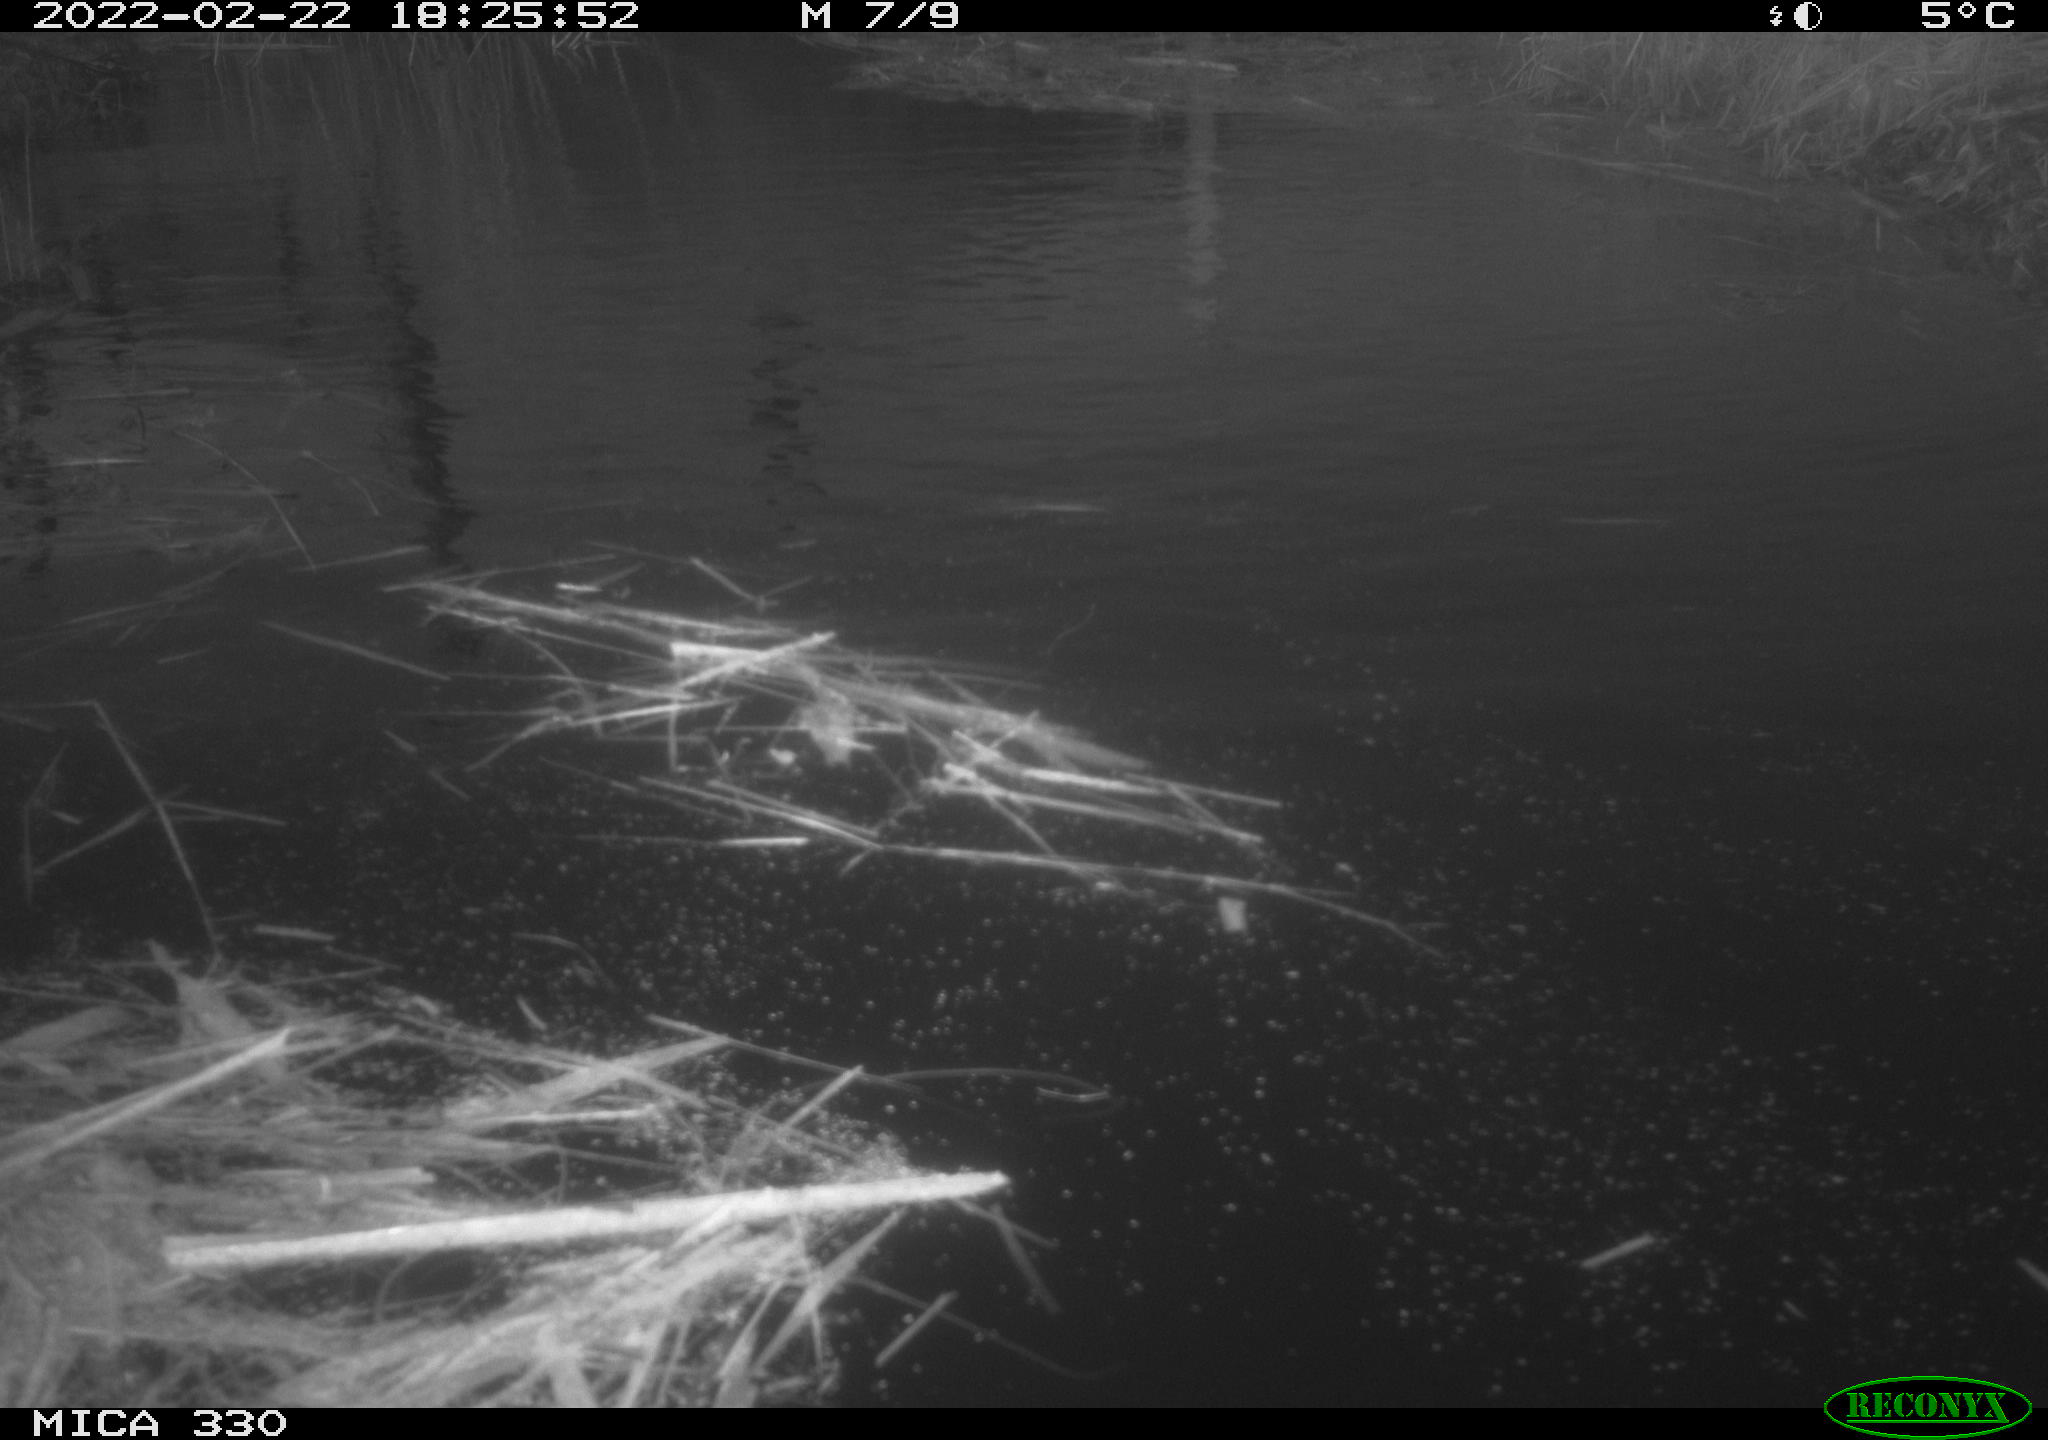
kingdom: Animalia
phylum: Chordata
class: Aves
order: Gruiformes
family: Rallidae
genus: Fulica
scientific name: Fulica atra
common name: Eurasian coot
